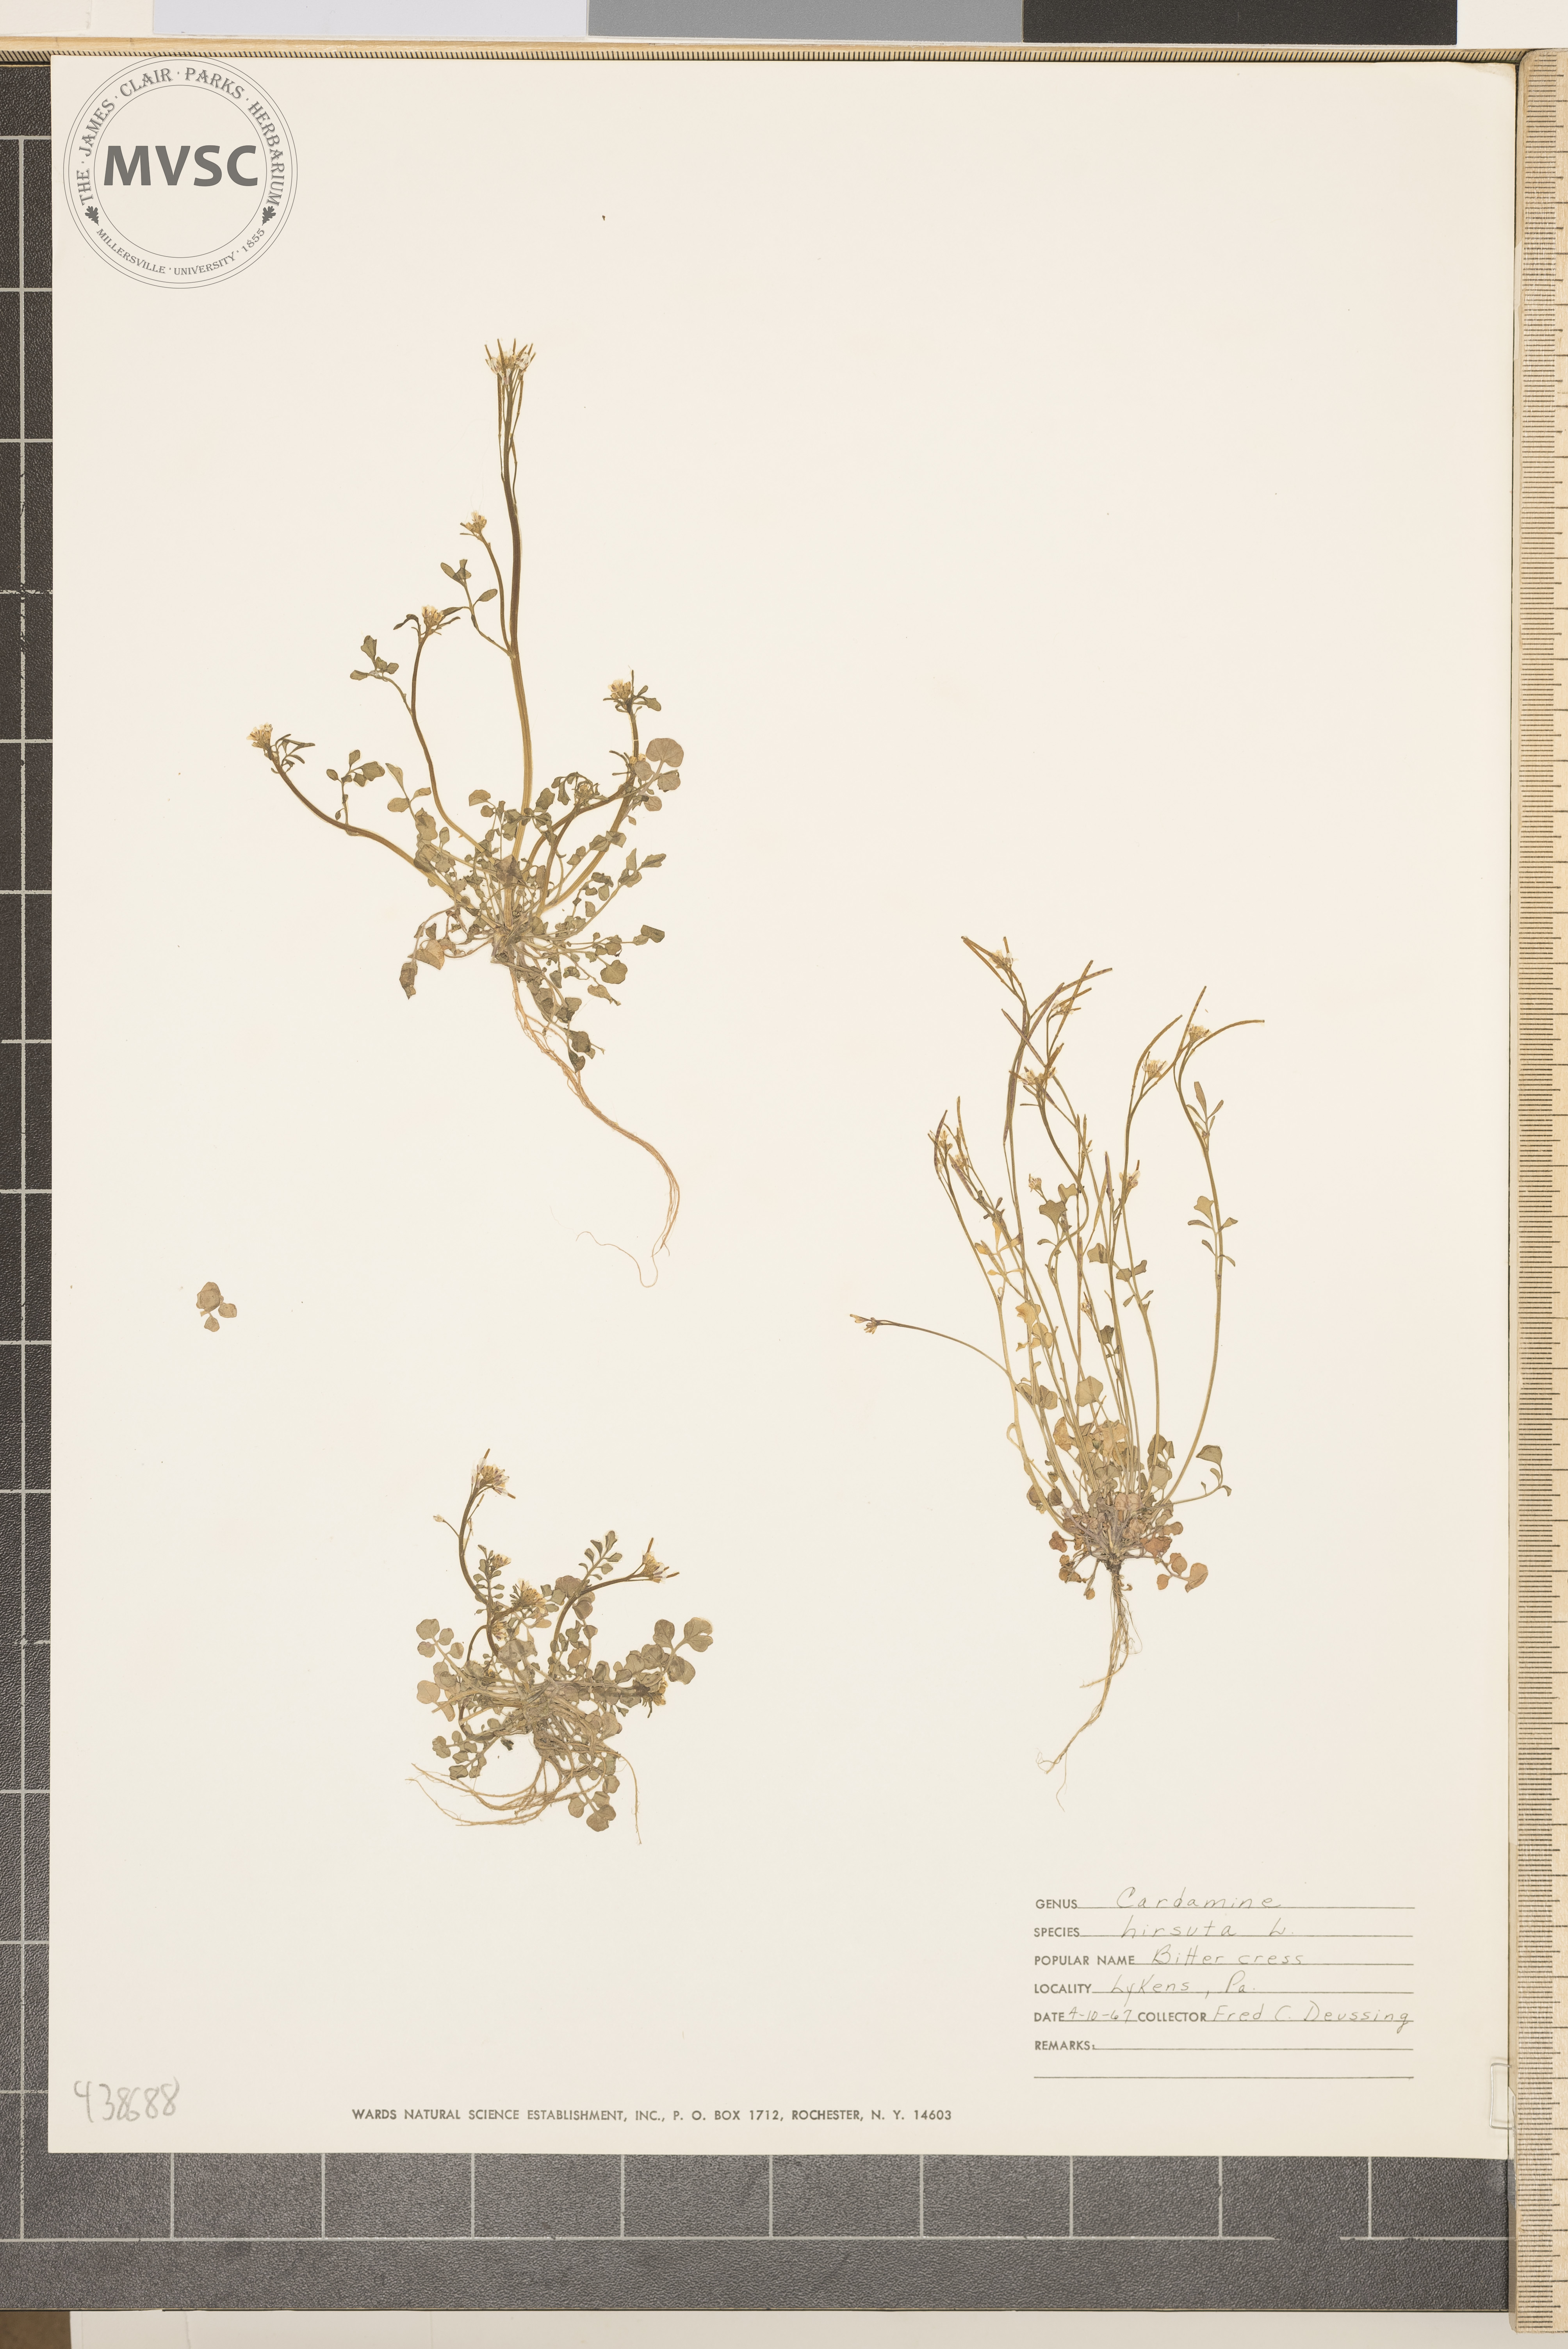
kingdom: Plantae
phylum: Tracheophyta
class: Magnoliopsida
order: Brassicales
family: Brassicaceae
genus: Cardamine
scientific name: Cardamine hirsuta
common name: Hairy bittercress
